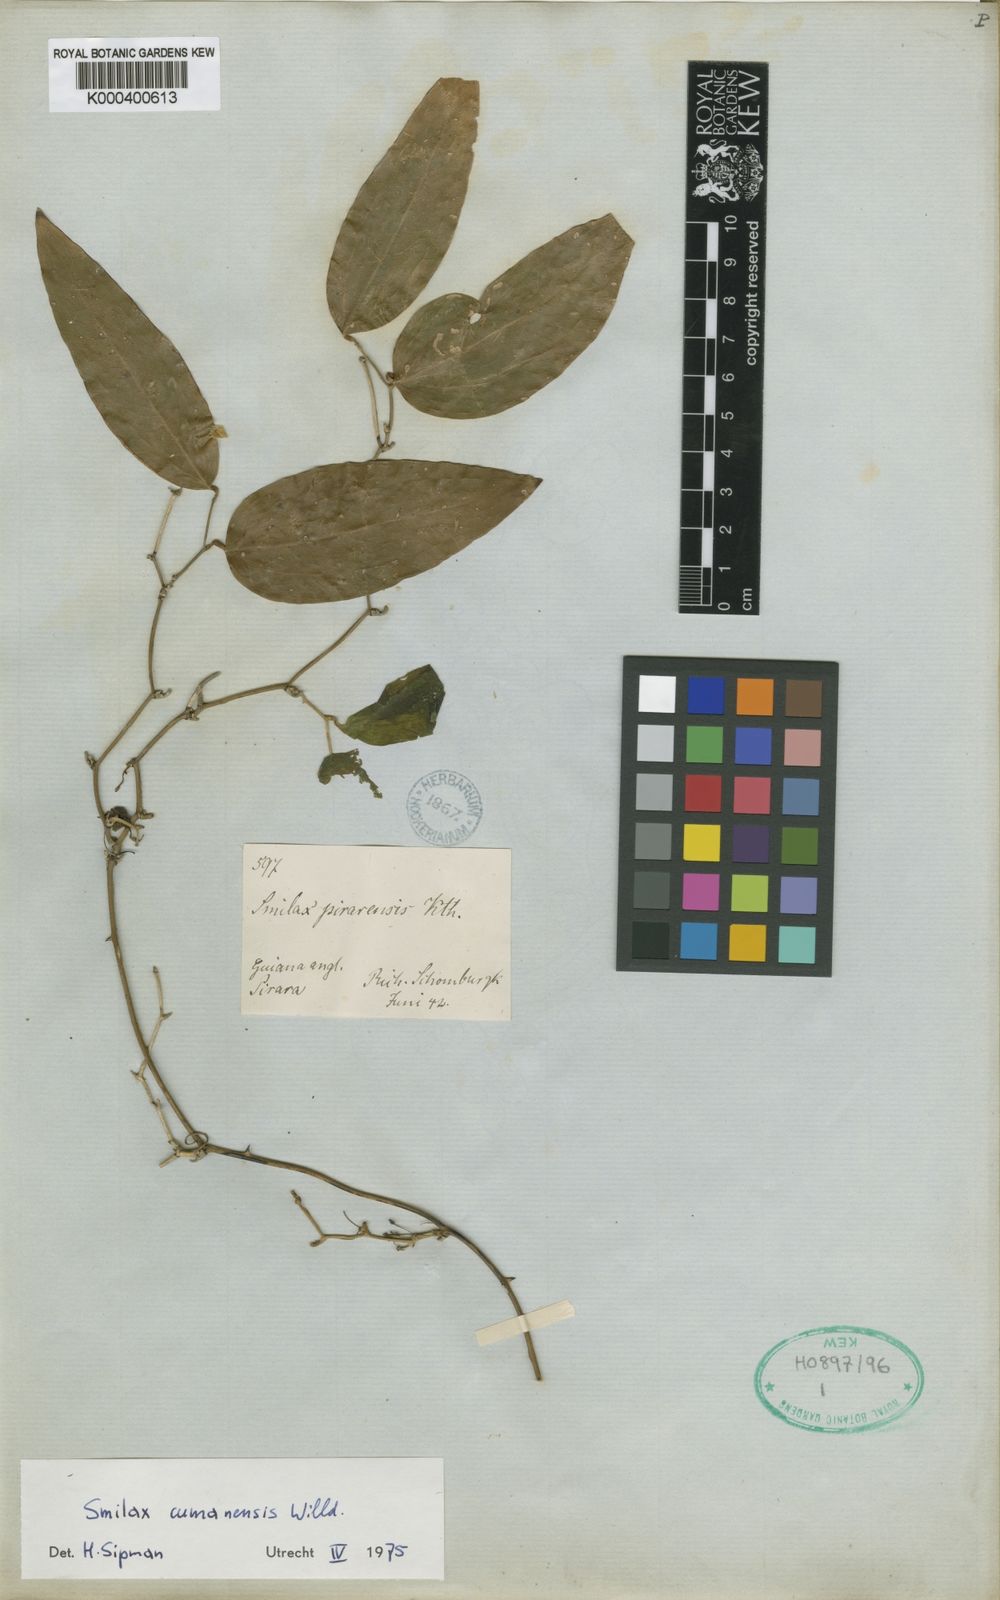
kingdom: Plantae
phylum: Tracheophyta
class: Liliopsida
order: Liliales
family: Smilacaceae
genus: Smilax
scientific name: Smilax oblongata
